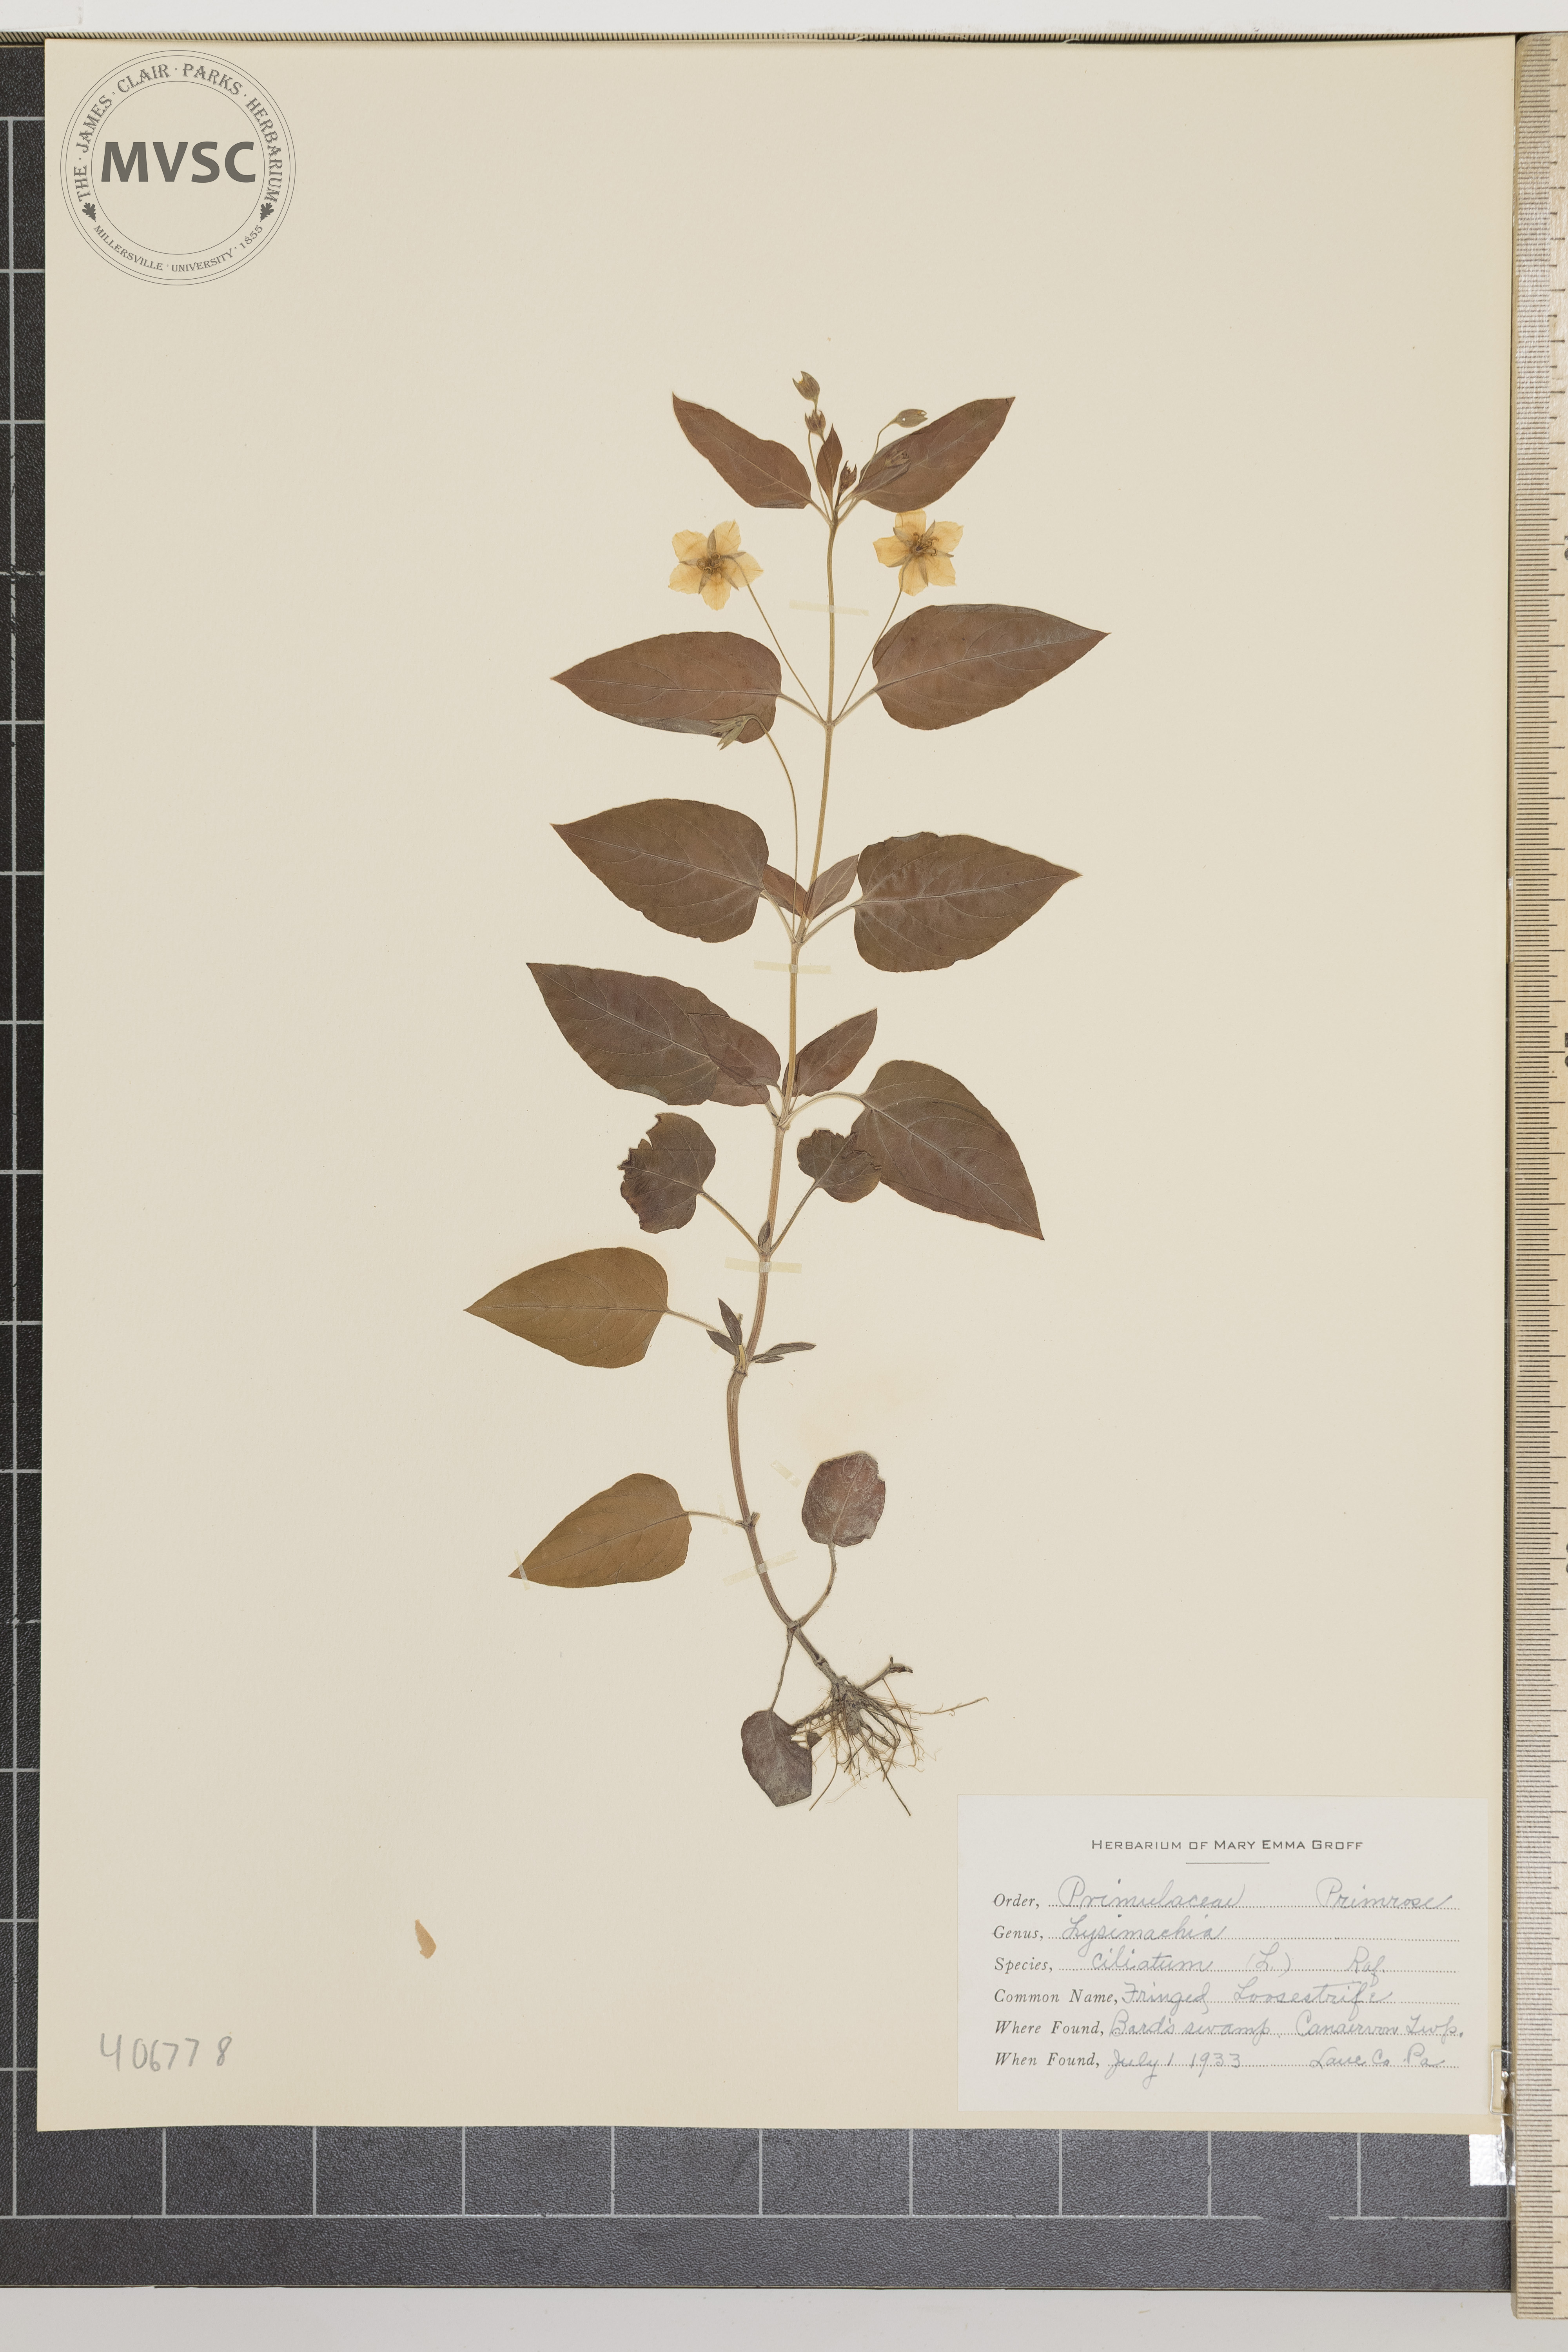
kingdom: Plantae
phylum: Tracheophyta
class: Magnoliopsida
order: Ericales
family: Primulaceae
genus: Lysimachia
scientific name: Lysimachia ciliata
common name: fringed loosestrife
